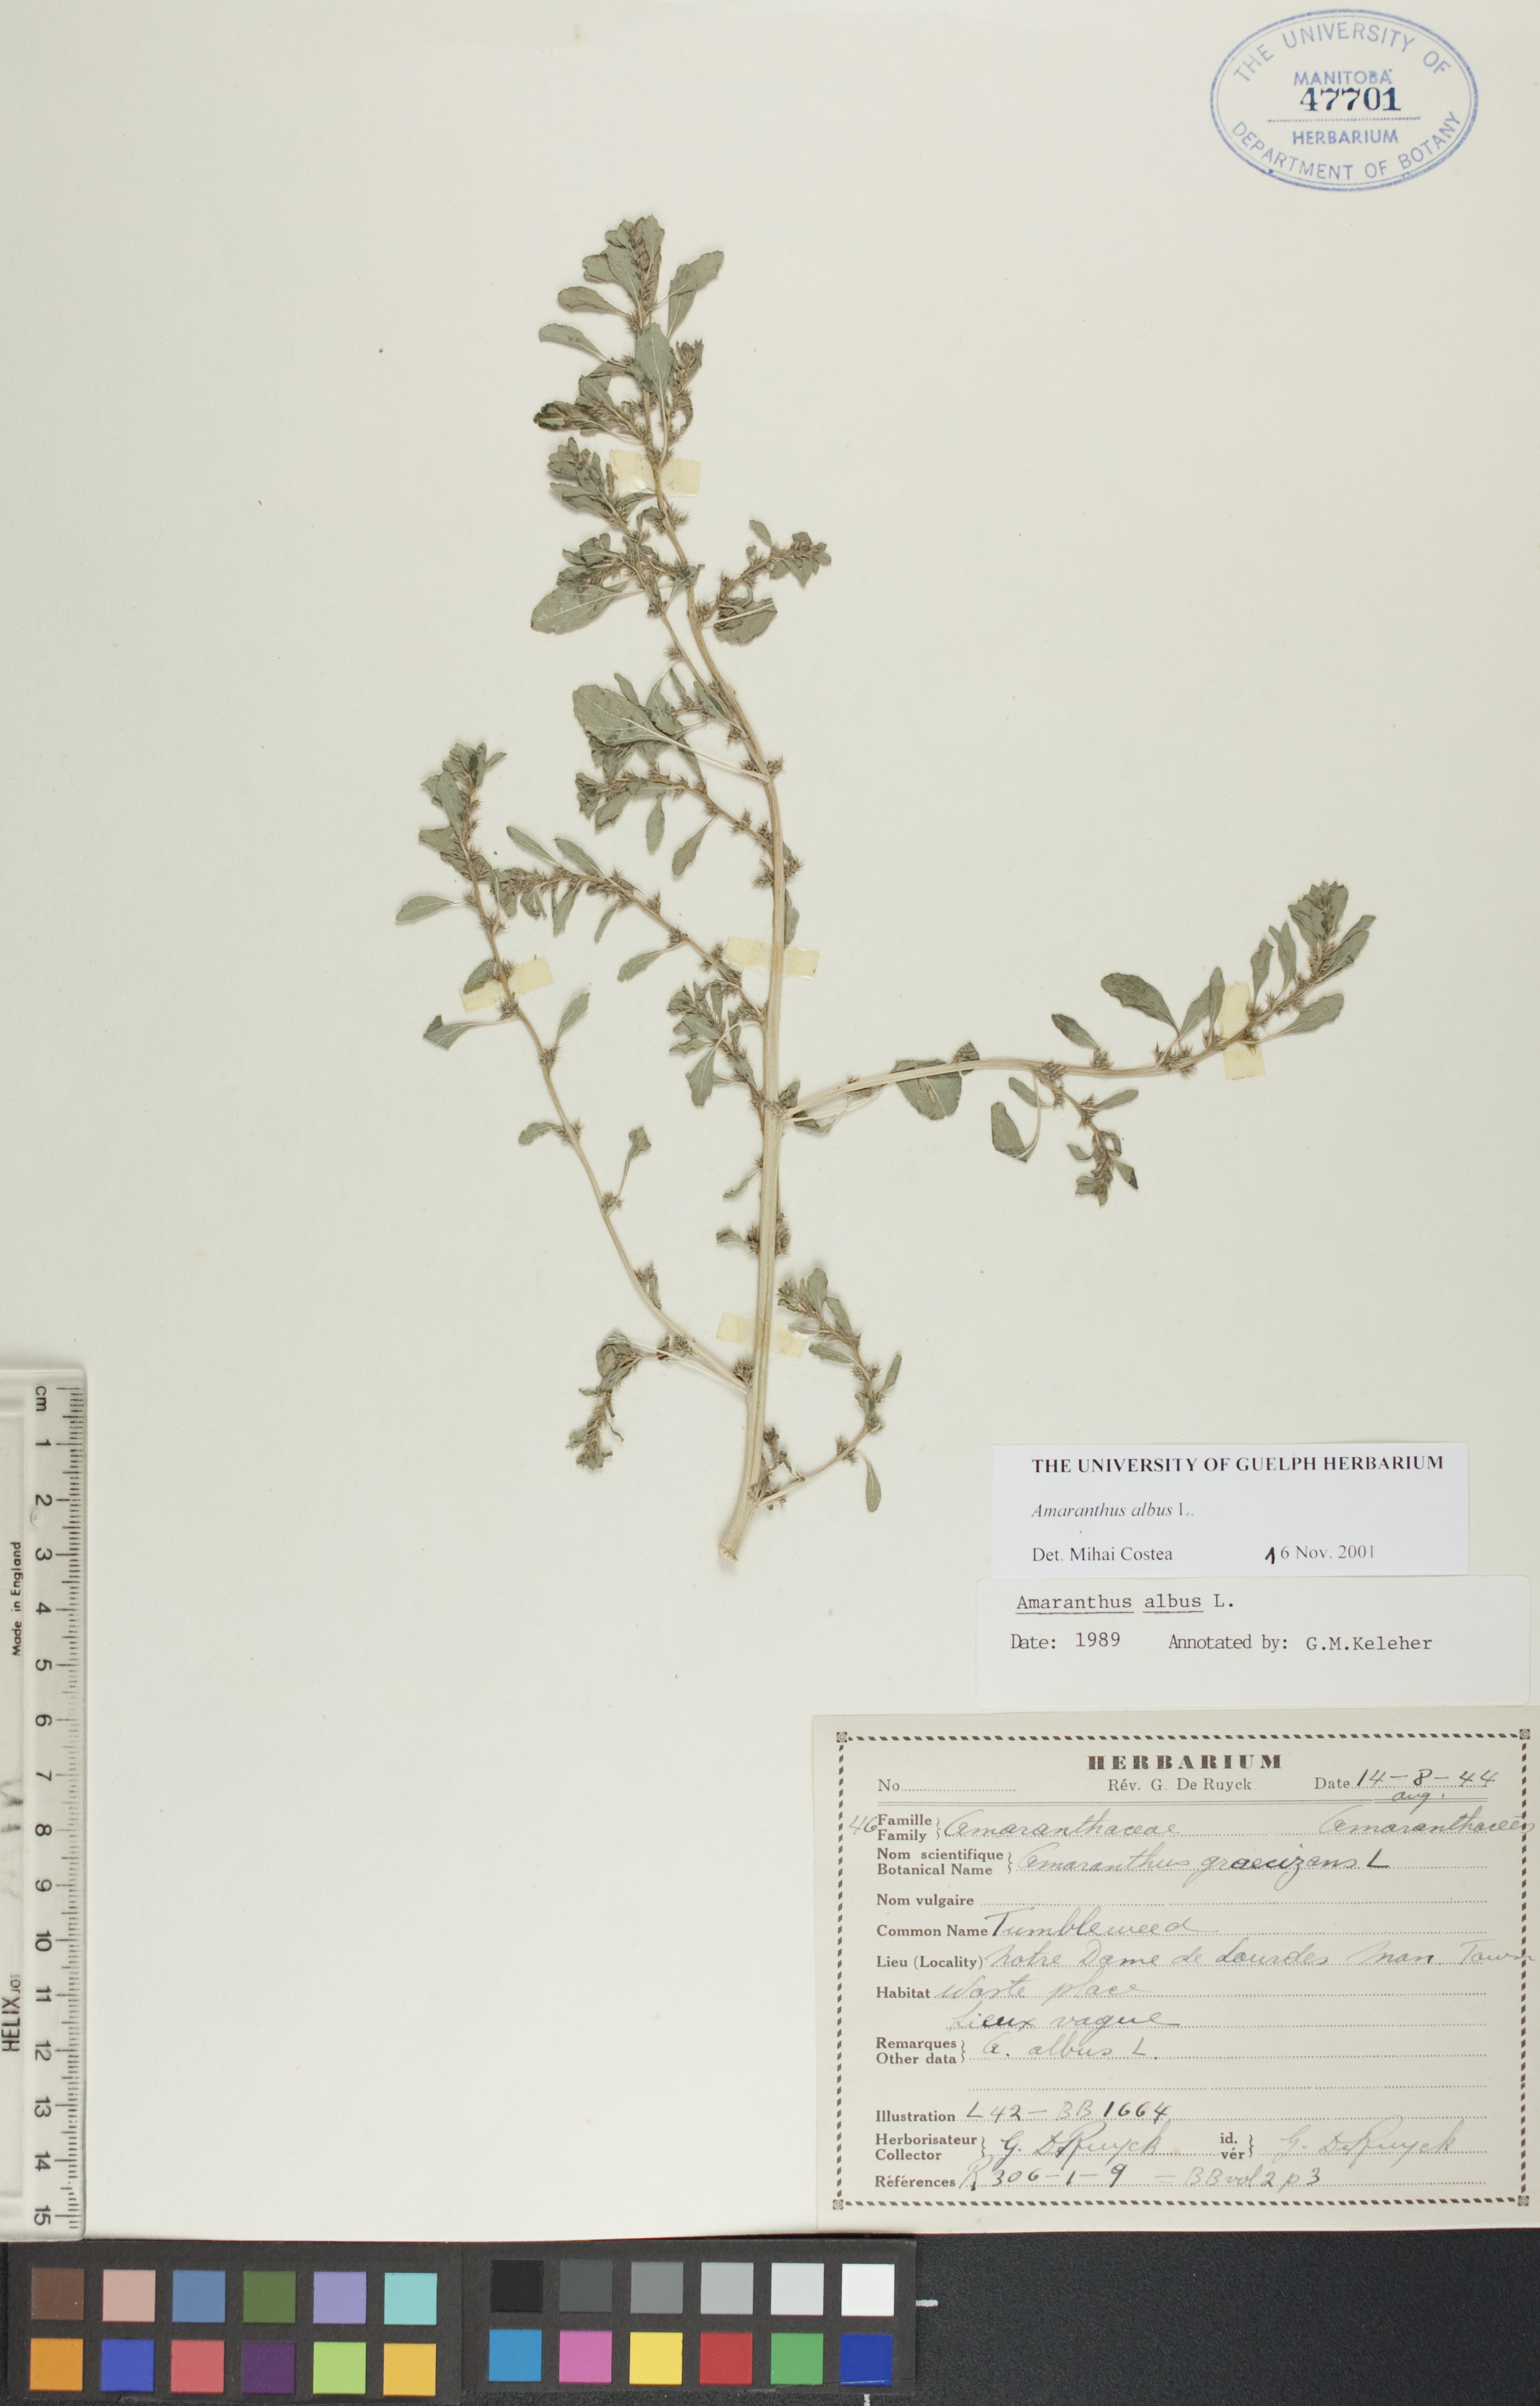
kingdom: Plantae
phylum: Tracheophyta
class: Magnoliopsida
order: Caryophyllales
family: Amaranthaceae
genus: Amaranthus
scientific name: Amaranthus albus
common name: White pigweed
